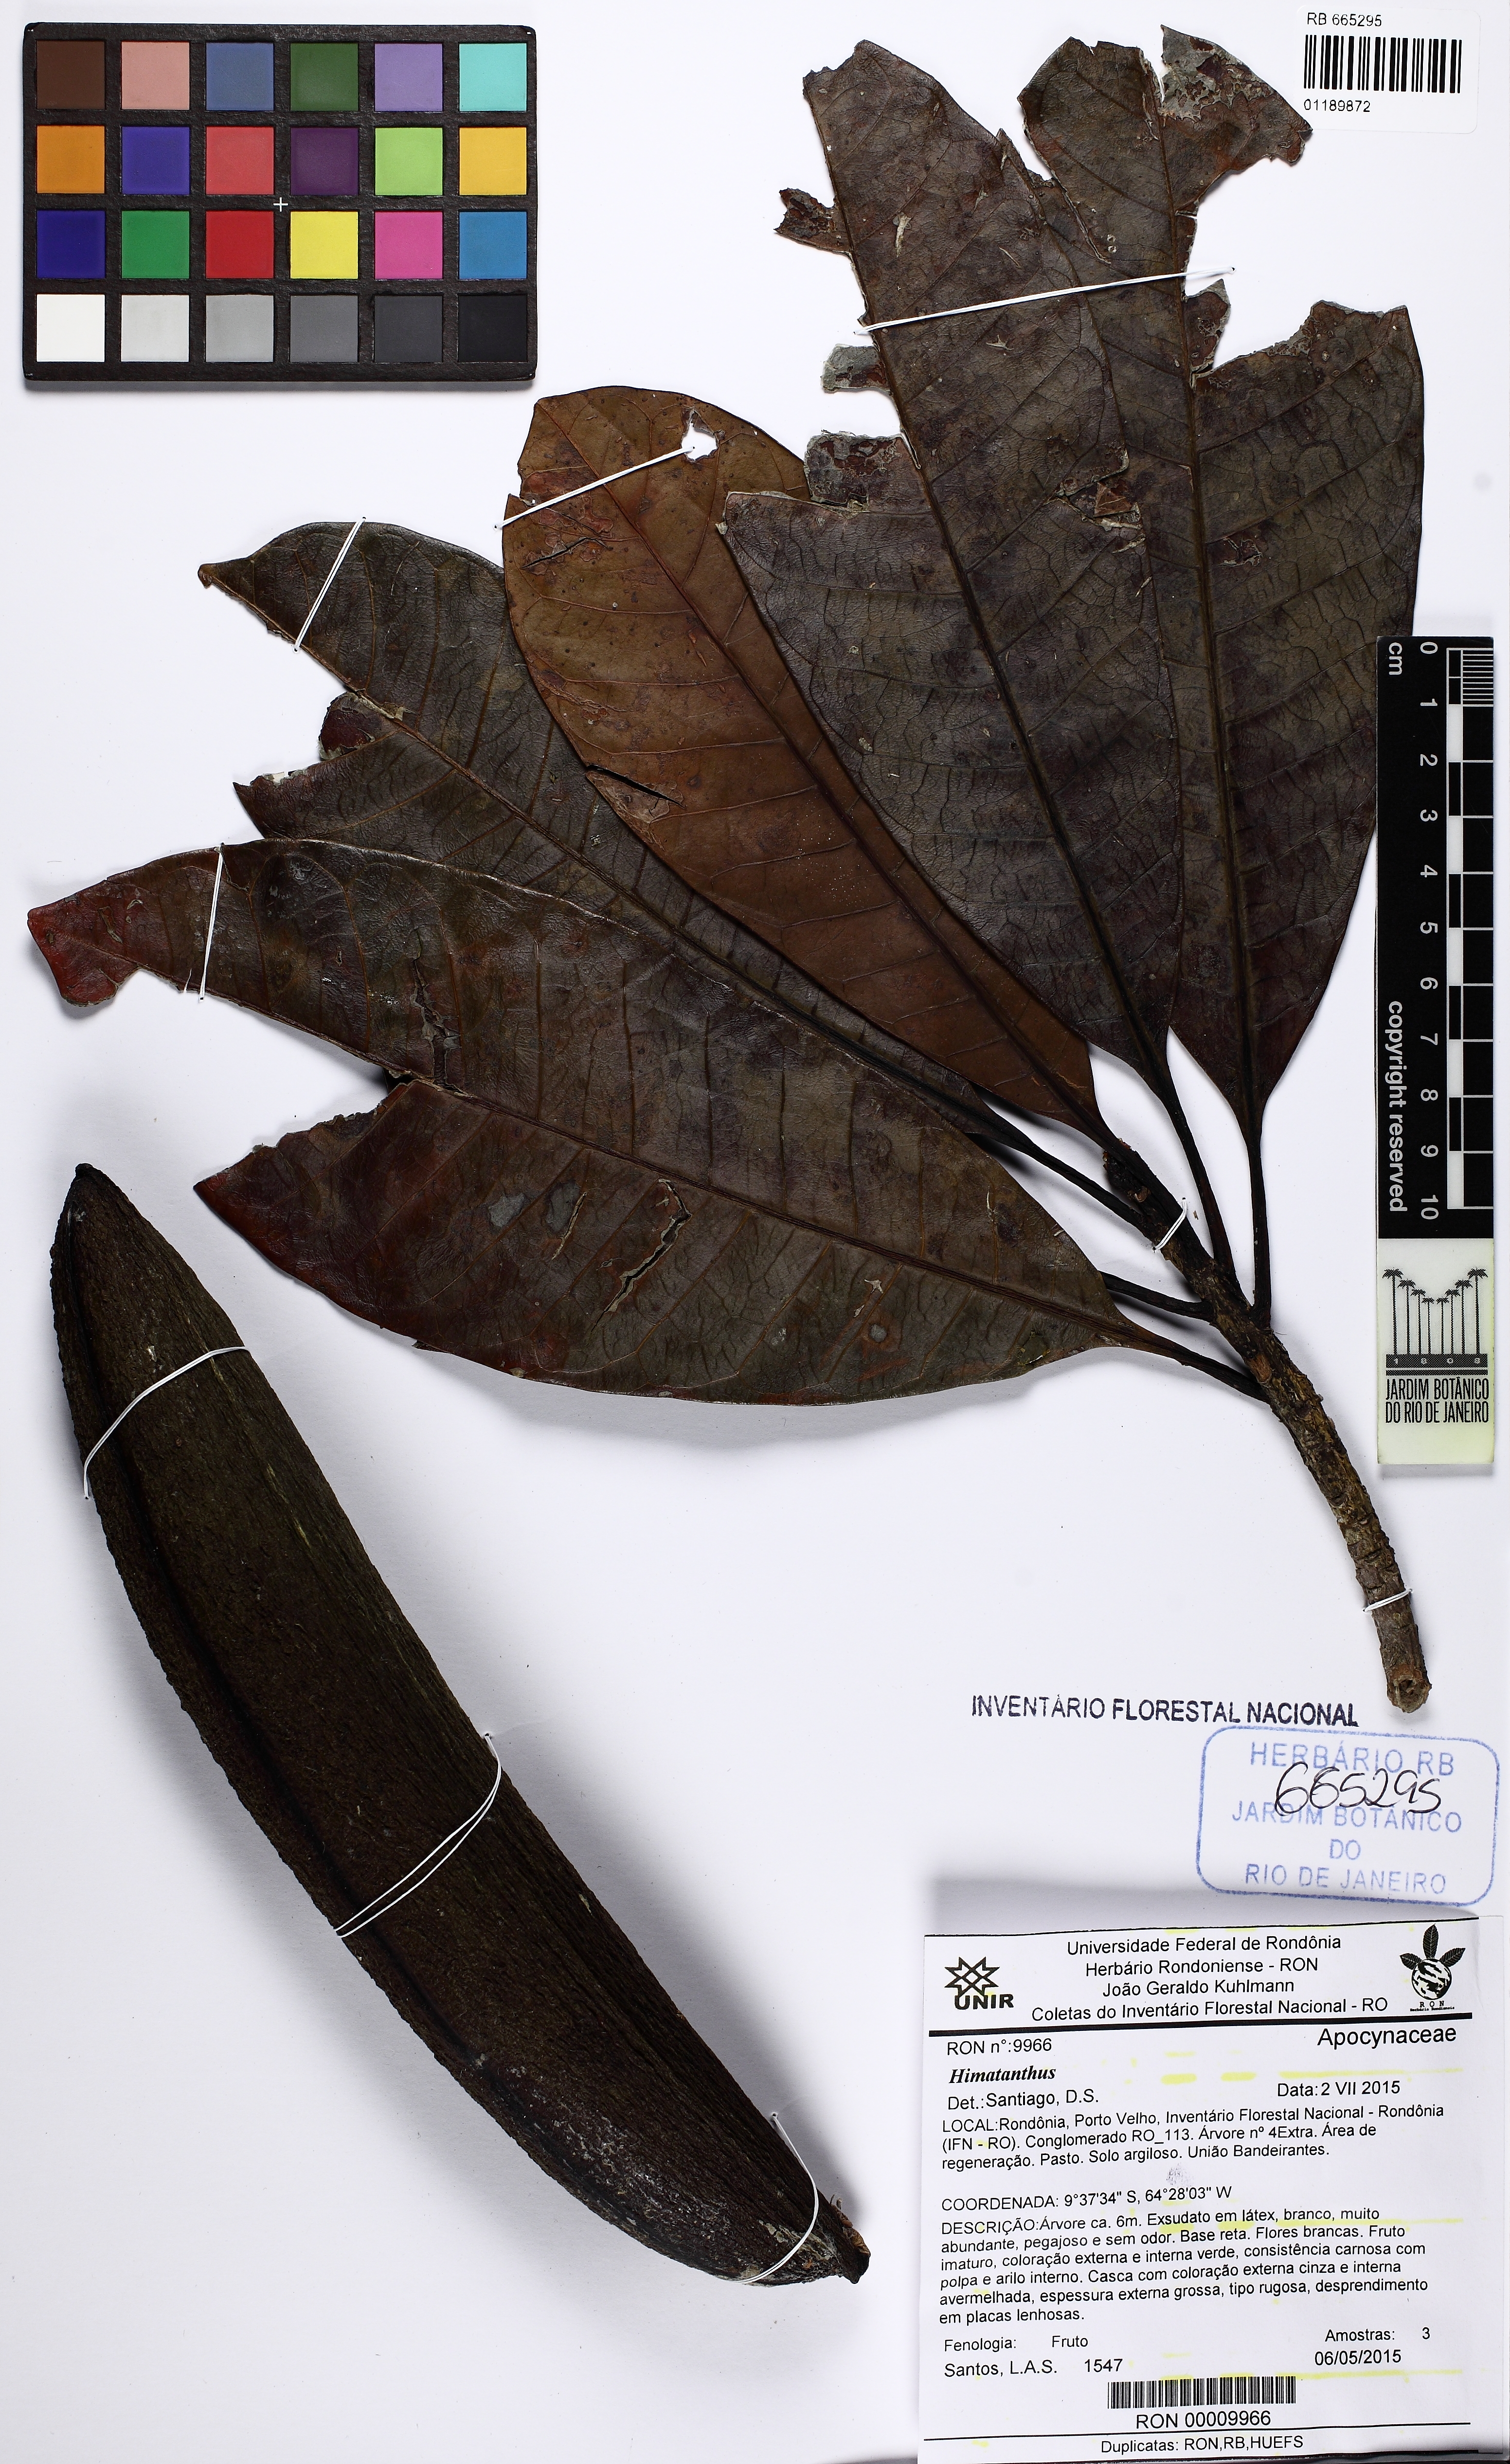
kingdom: Plantae
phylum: Tracheophyta
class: Magnoliopsida
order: Gentianales
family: Apocynaceae
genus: Himatanthus
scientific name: Himatanthus
